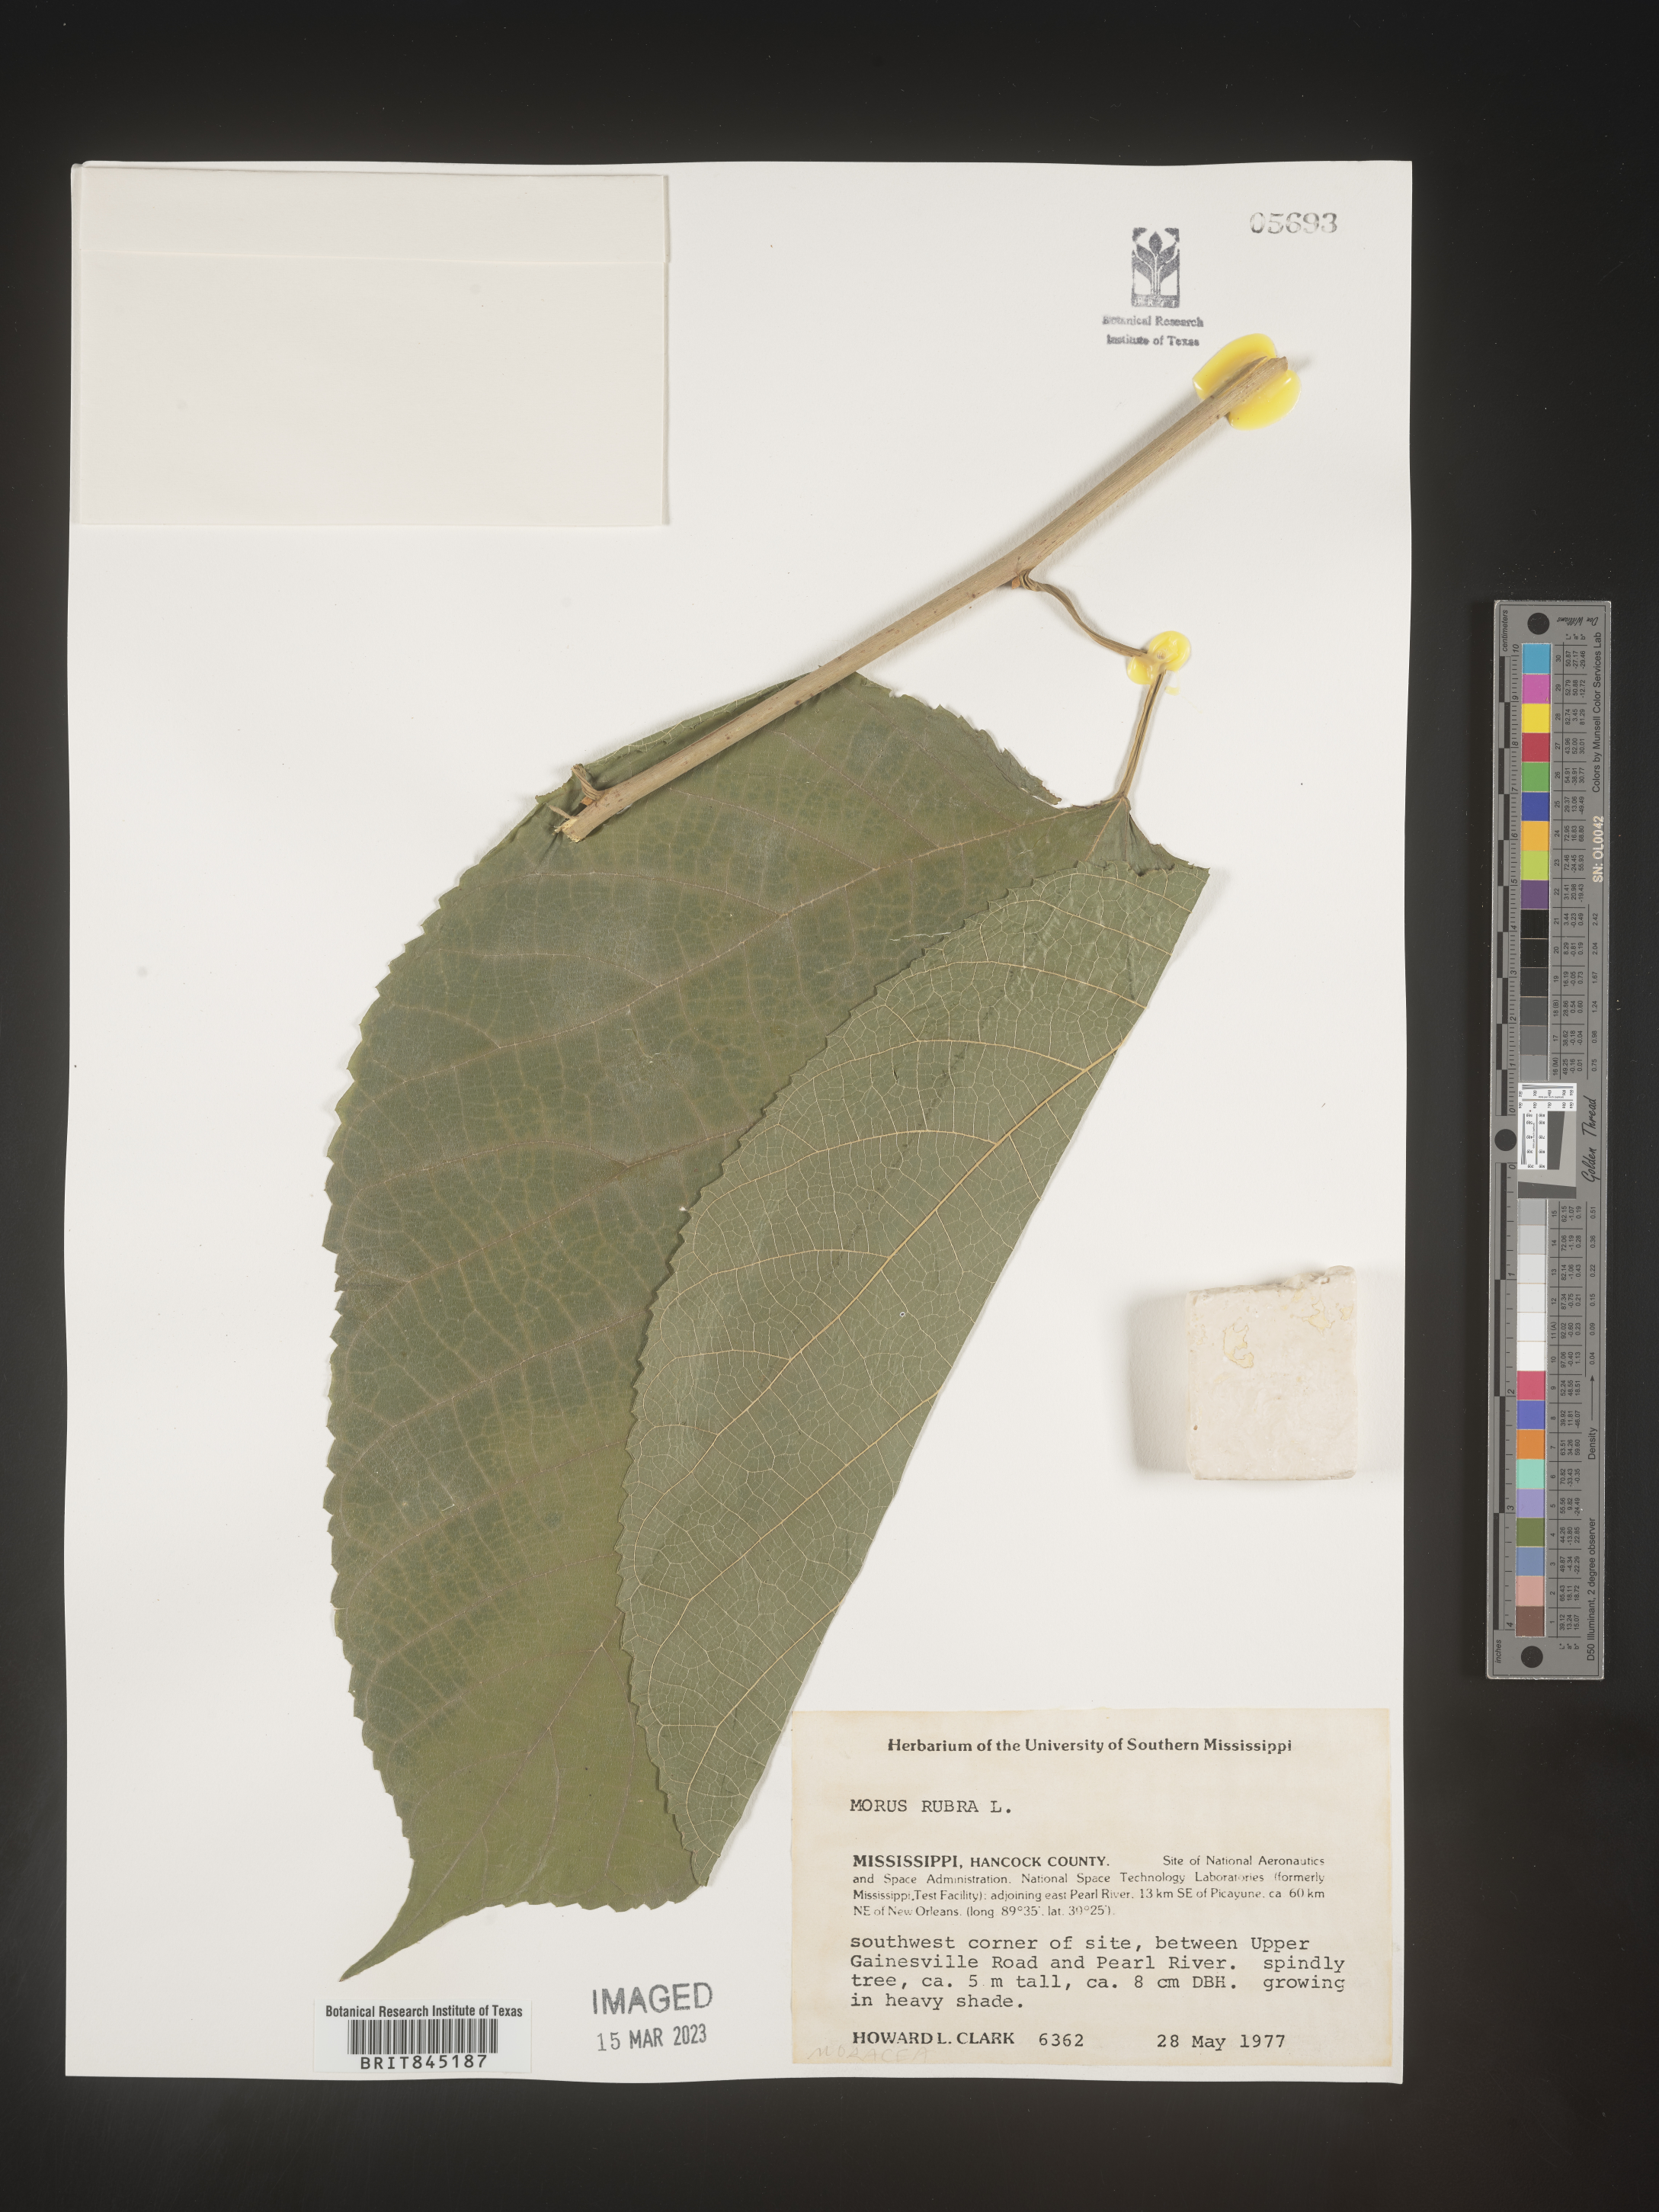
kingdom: Plantae
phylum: Tracheophyta
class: Magnoliopsida
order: Rosales
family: Moraceae
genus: Morus
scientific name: Morus rubra
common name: Red mulberry
